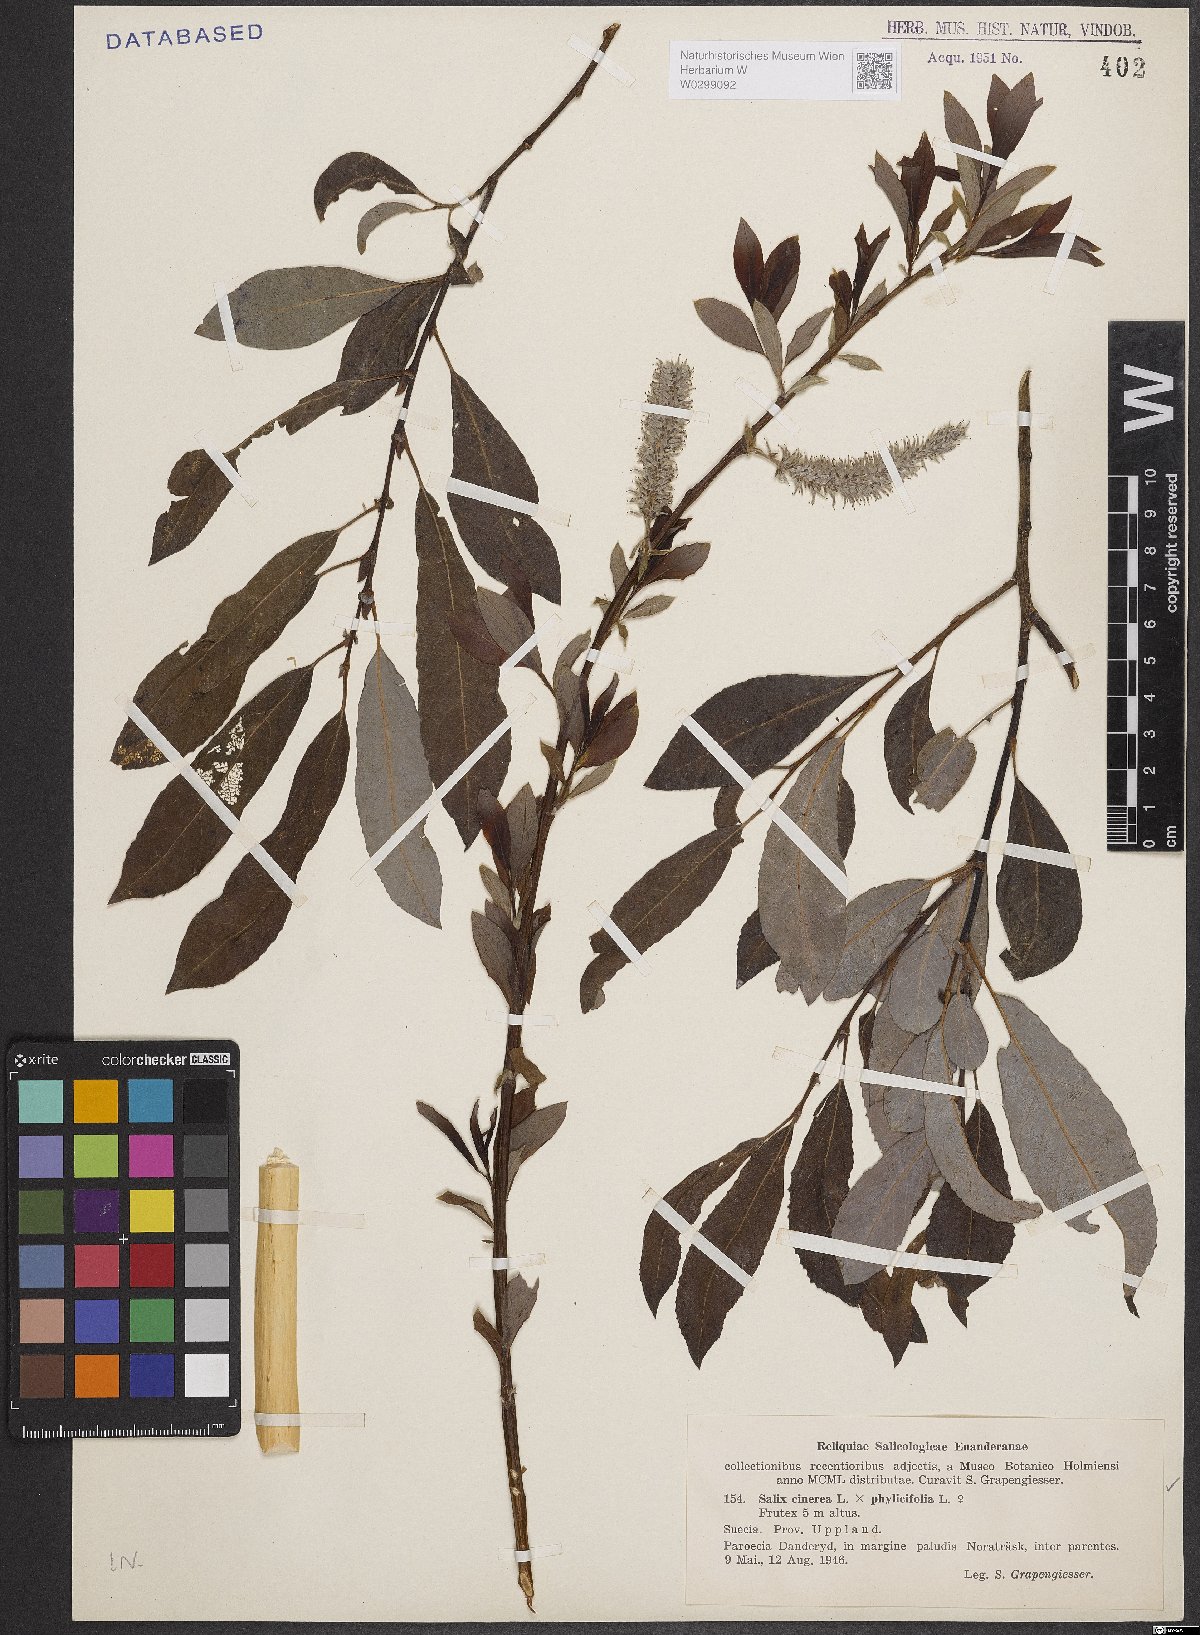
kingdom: Plantae
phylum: Tracheophyta
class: Magnoliopsida
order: Malpighiales
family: Salicaceae
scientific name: Salicaceae
